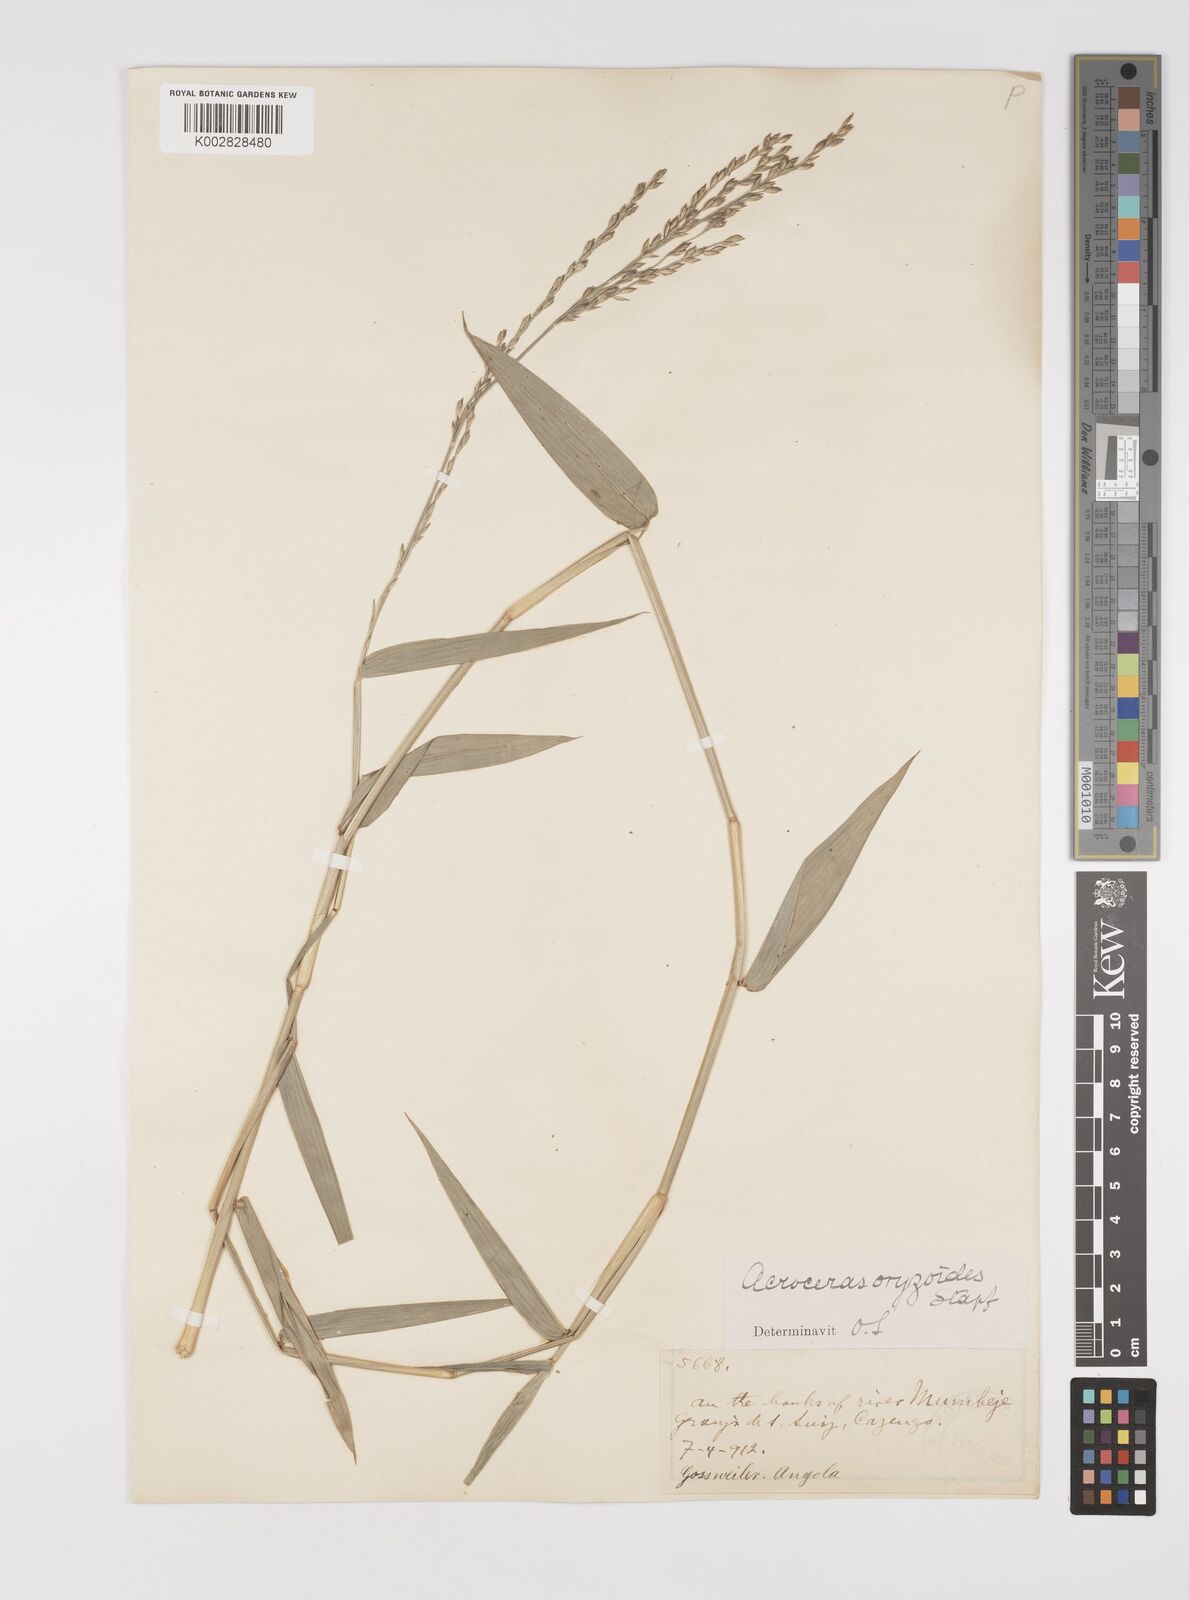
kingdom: Plantae
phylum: Tracheophyta
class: Liliopsida
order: Poales
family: Poaceae
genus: Acroceras
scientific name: Acroceras zizanioides
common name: Oat grass
